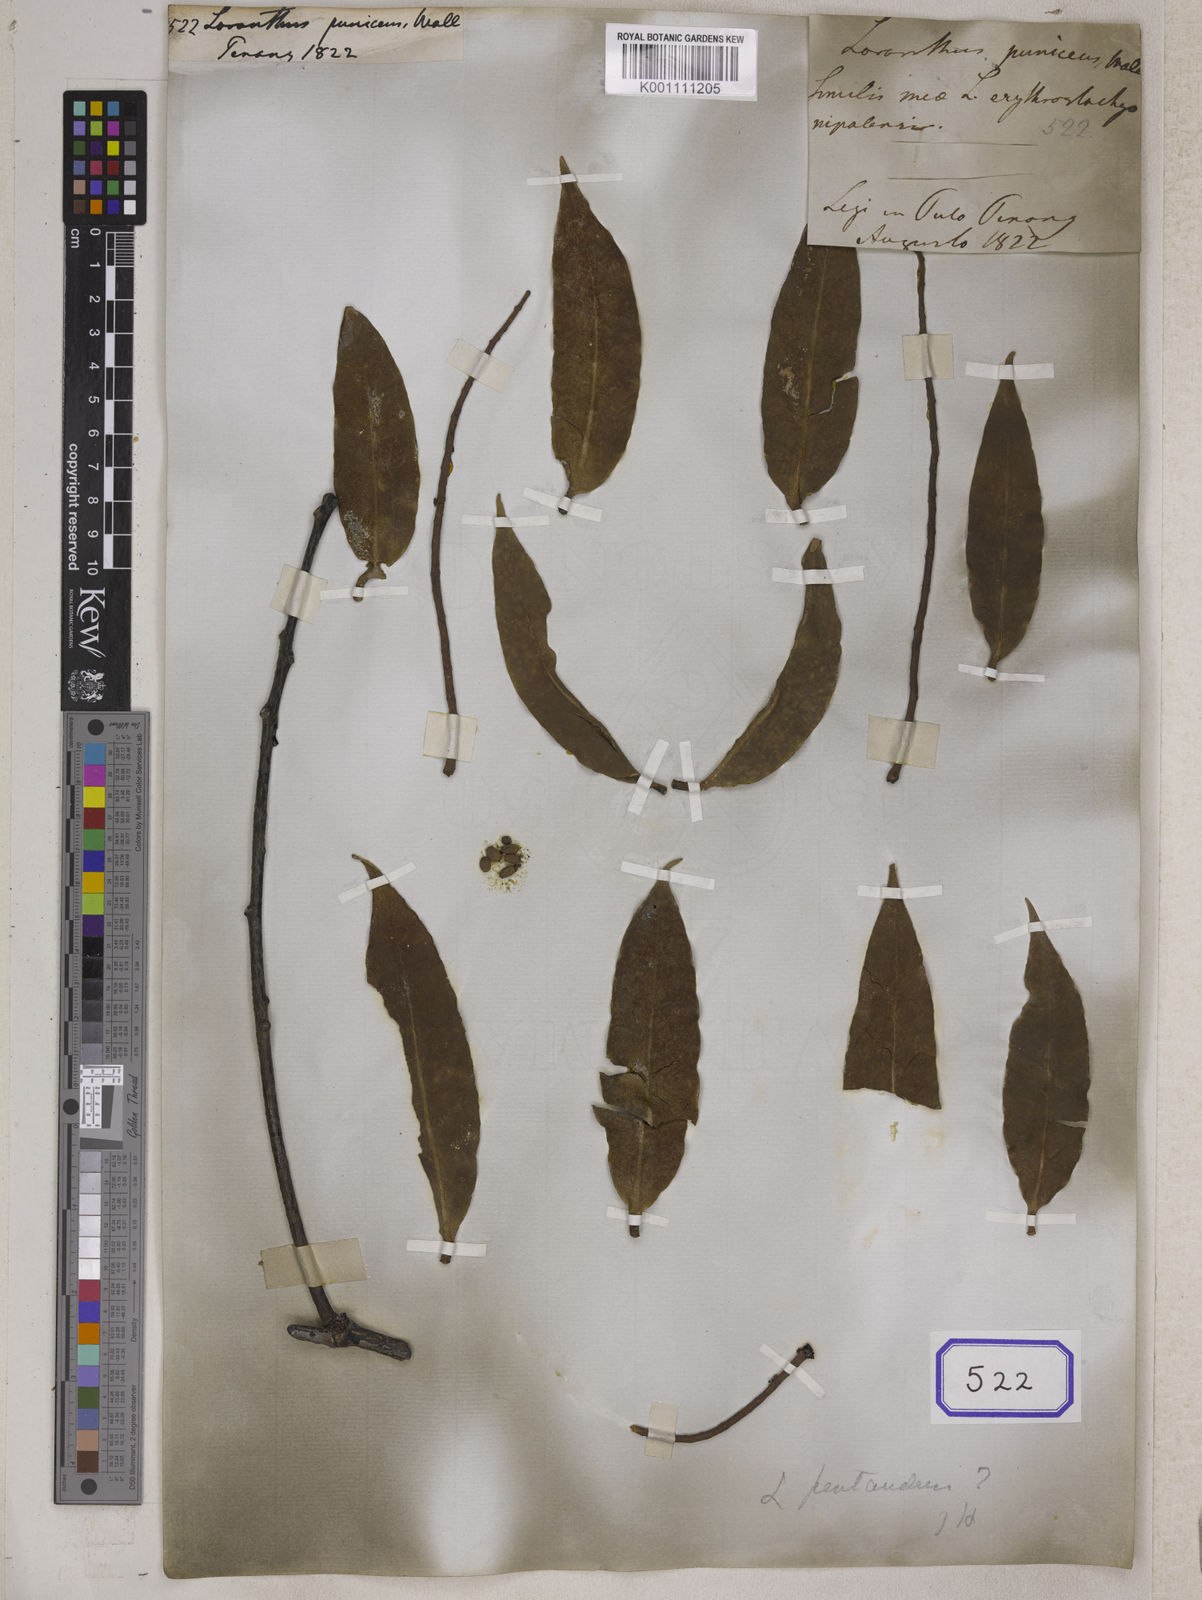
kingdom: Plantae
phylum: Tracheophyta
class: Magnoliopsida
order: Santalales
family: Loranthaceae
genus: Loranthus
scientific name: Loranthus puniceus
